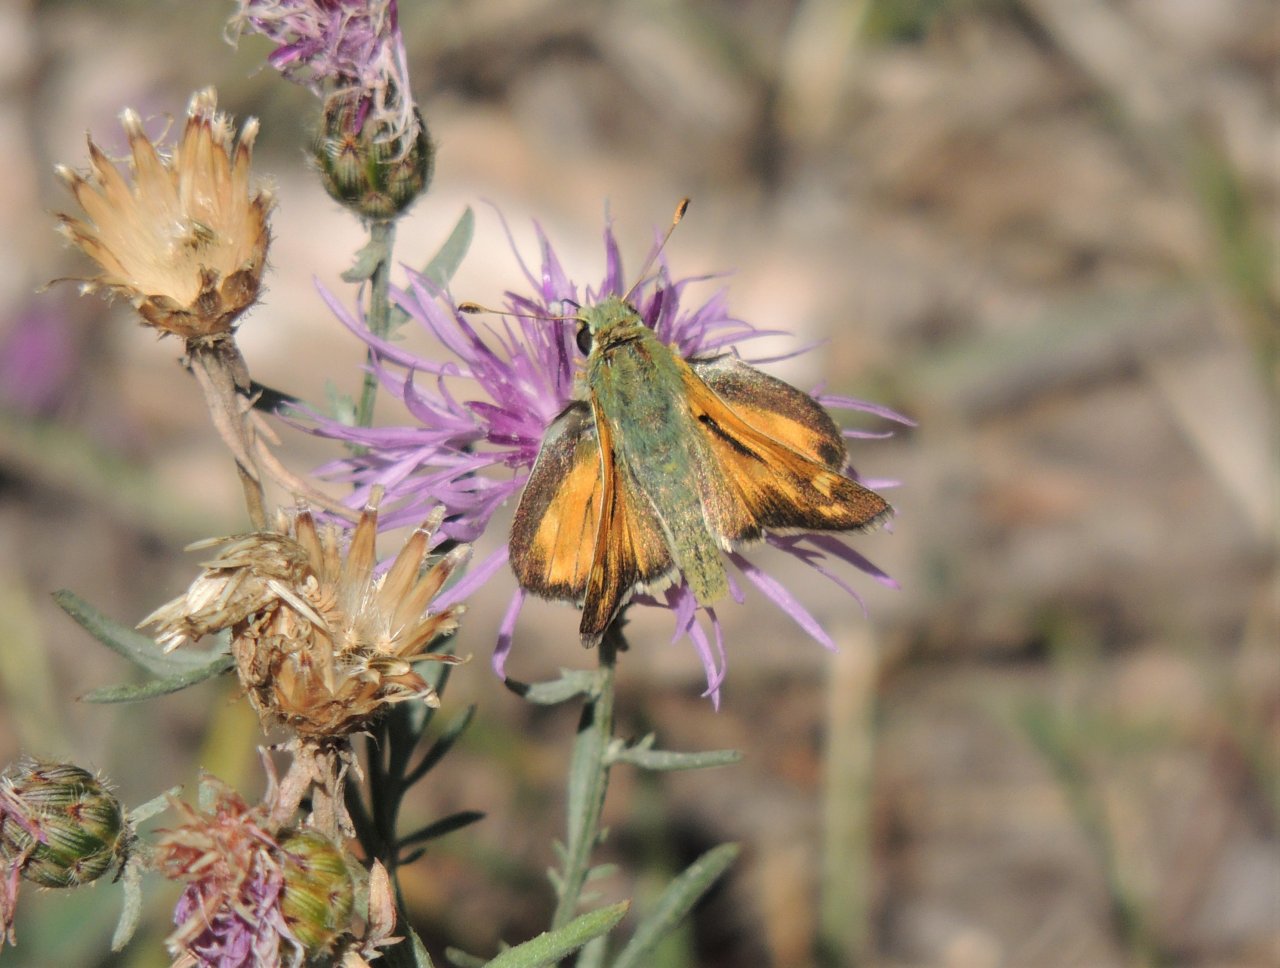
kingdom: Animalia
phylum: Arthropoda
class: Insecta
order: Lepidoptera
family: Hesperiidae
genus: Ochlodes
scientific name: Ochlodes sylvanoides
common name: Woodland Skipper
